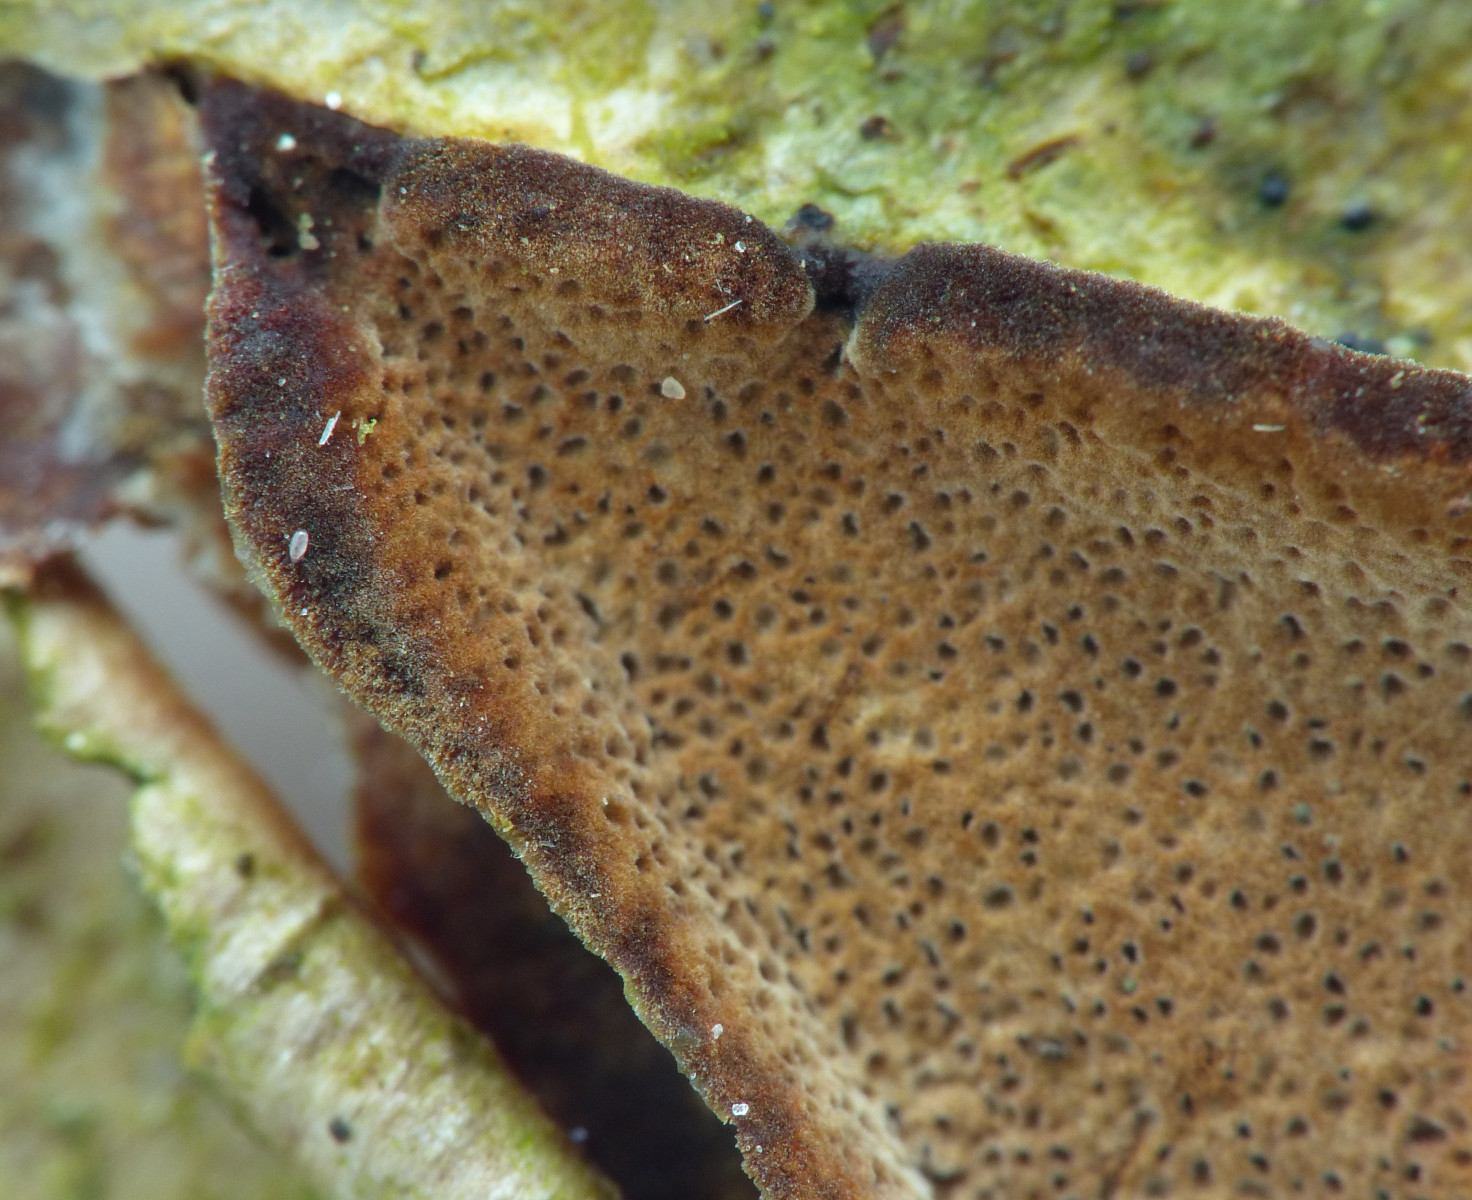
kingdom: Fungi
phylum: Basidiomycota
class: Agaricomycetes
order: Hymenochaetales
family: Hymenochaetaceae
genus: Fuscoporia
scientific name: Fuscoporia ferruginosa
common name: rustbrun ildporesvamp
